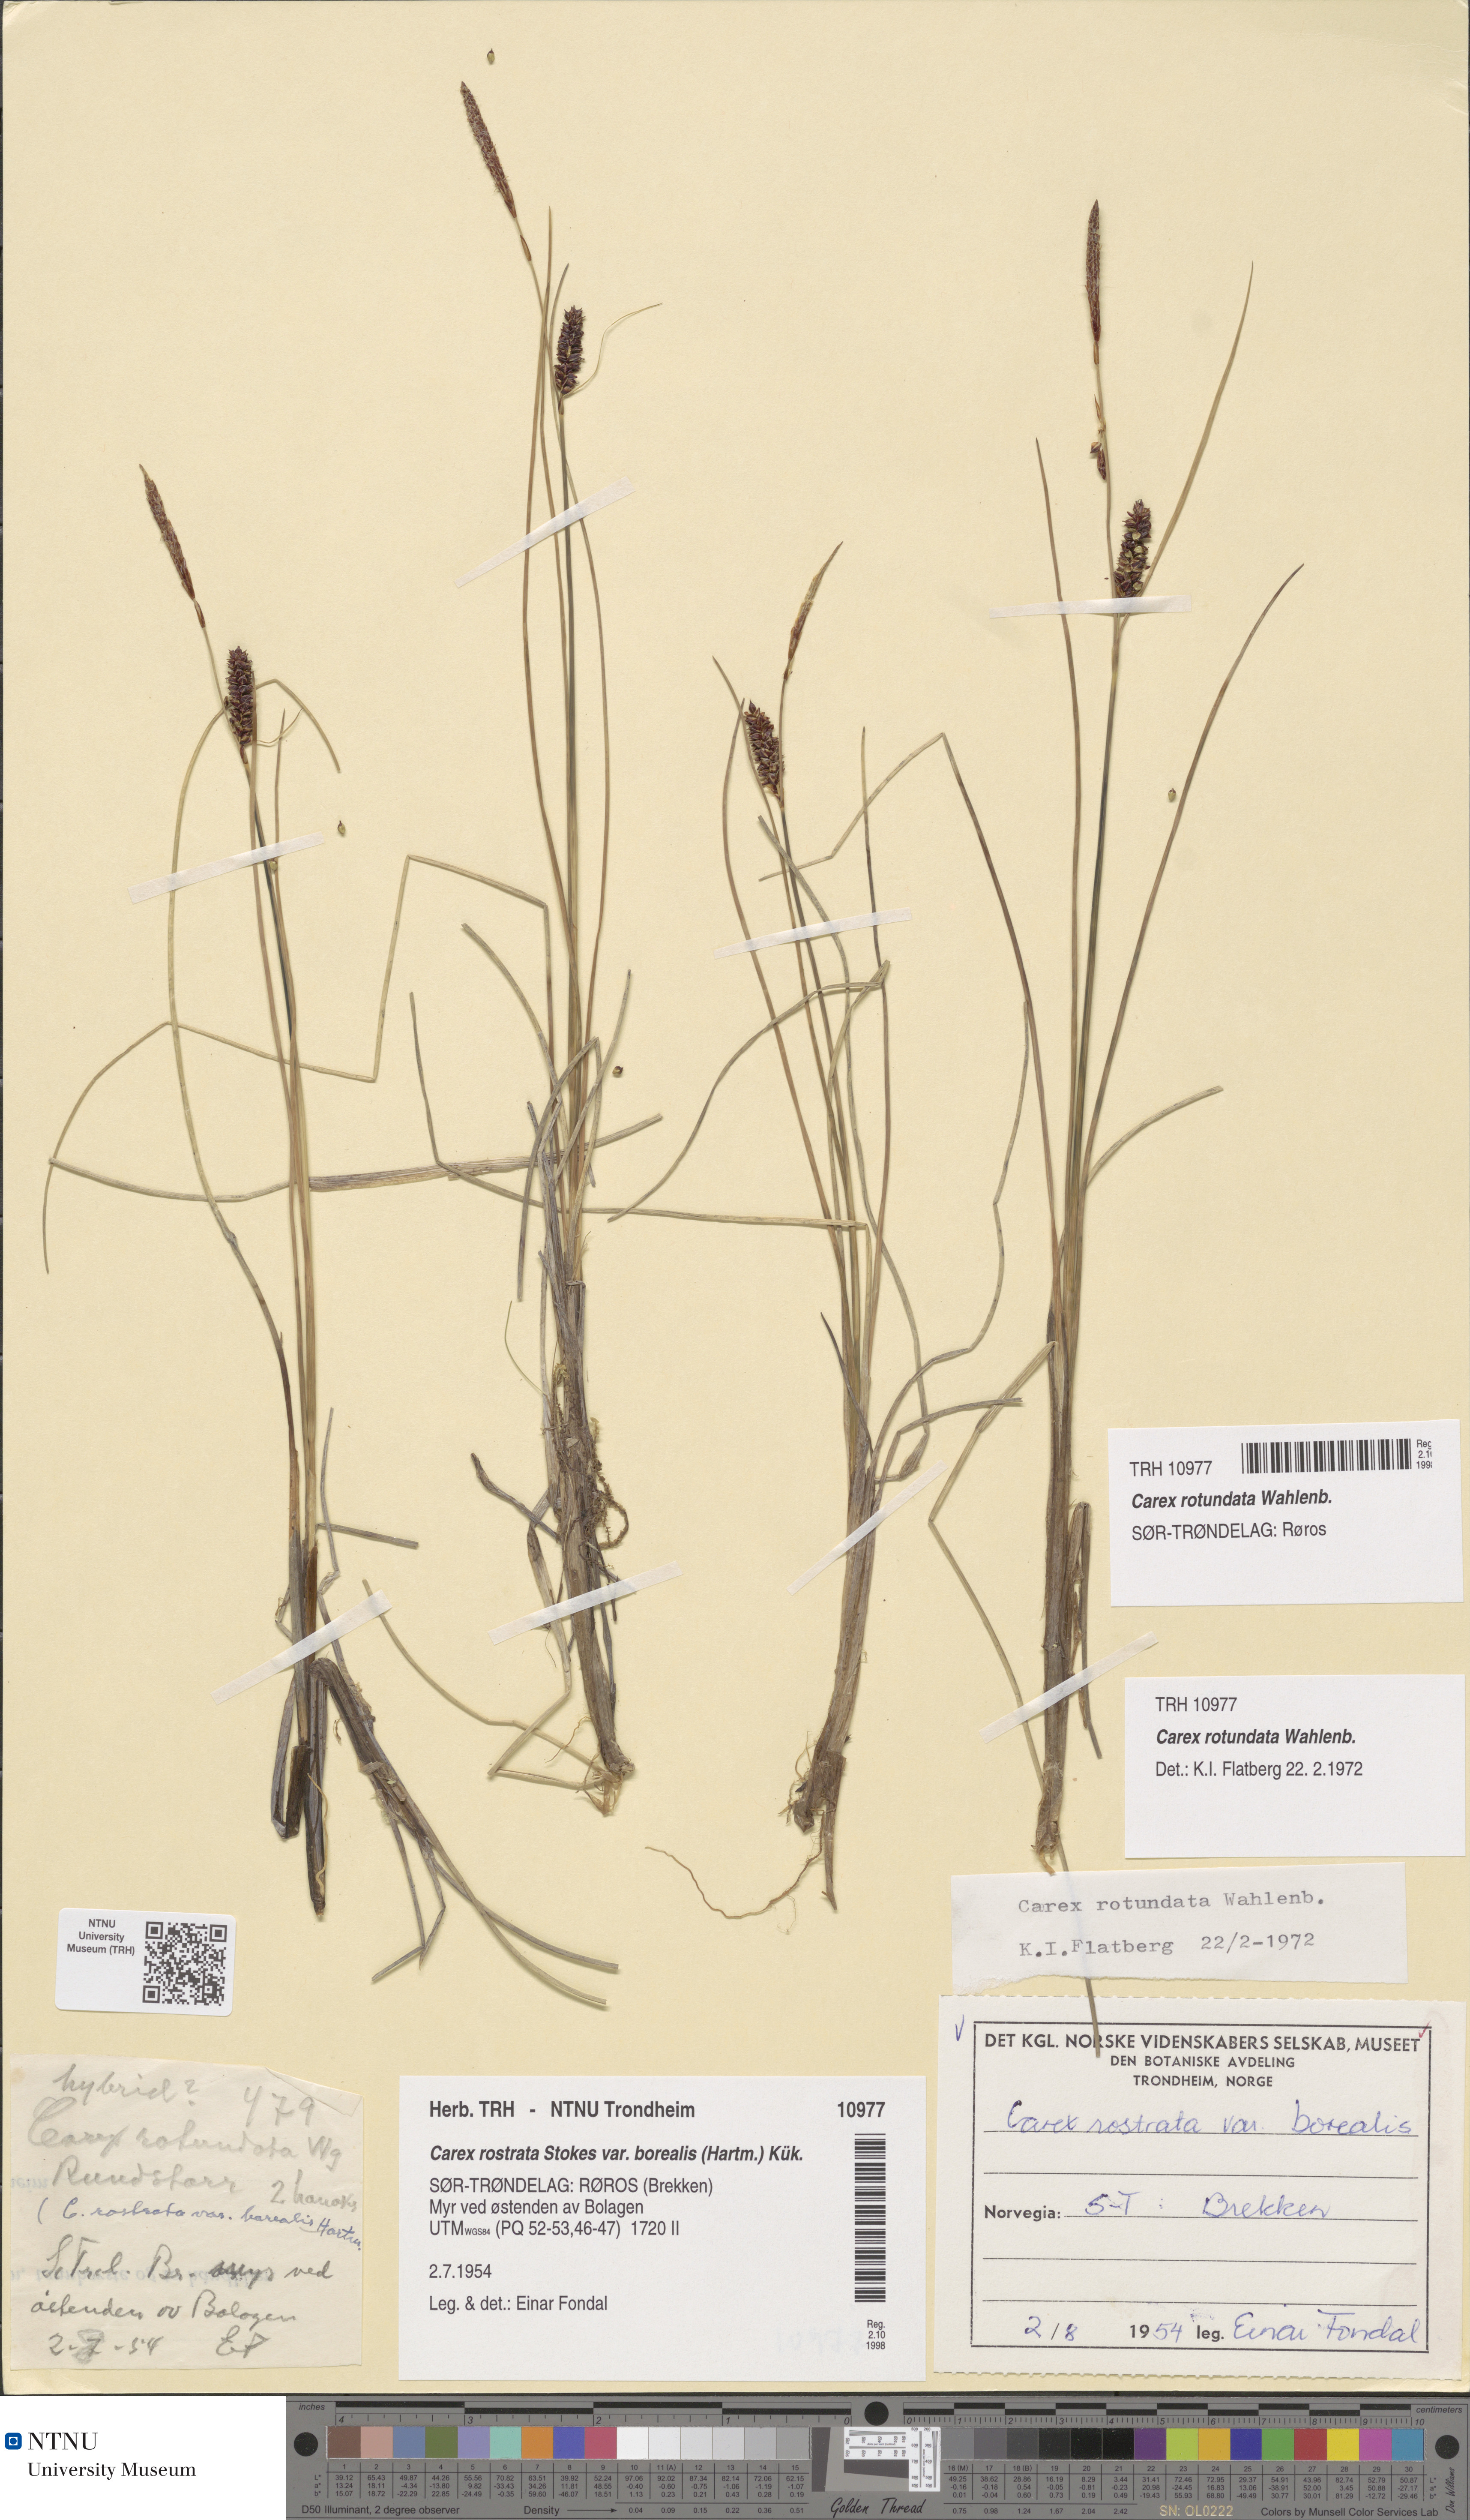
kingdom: Plantae
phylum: Tracheophyta
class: Liliopsida
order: Poales
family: Cyperaceae
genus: Carex
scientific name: Carex rotundata
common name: Round-fruited sedge
